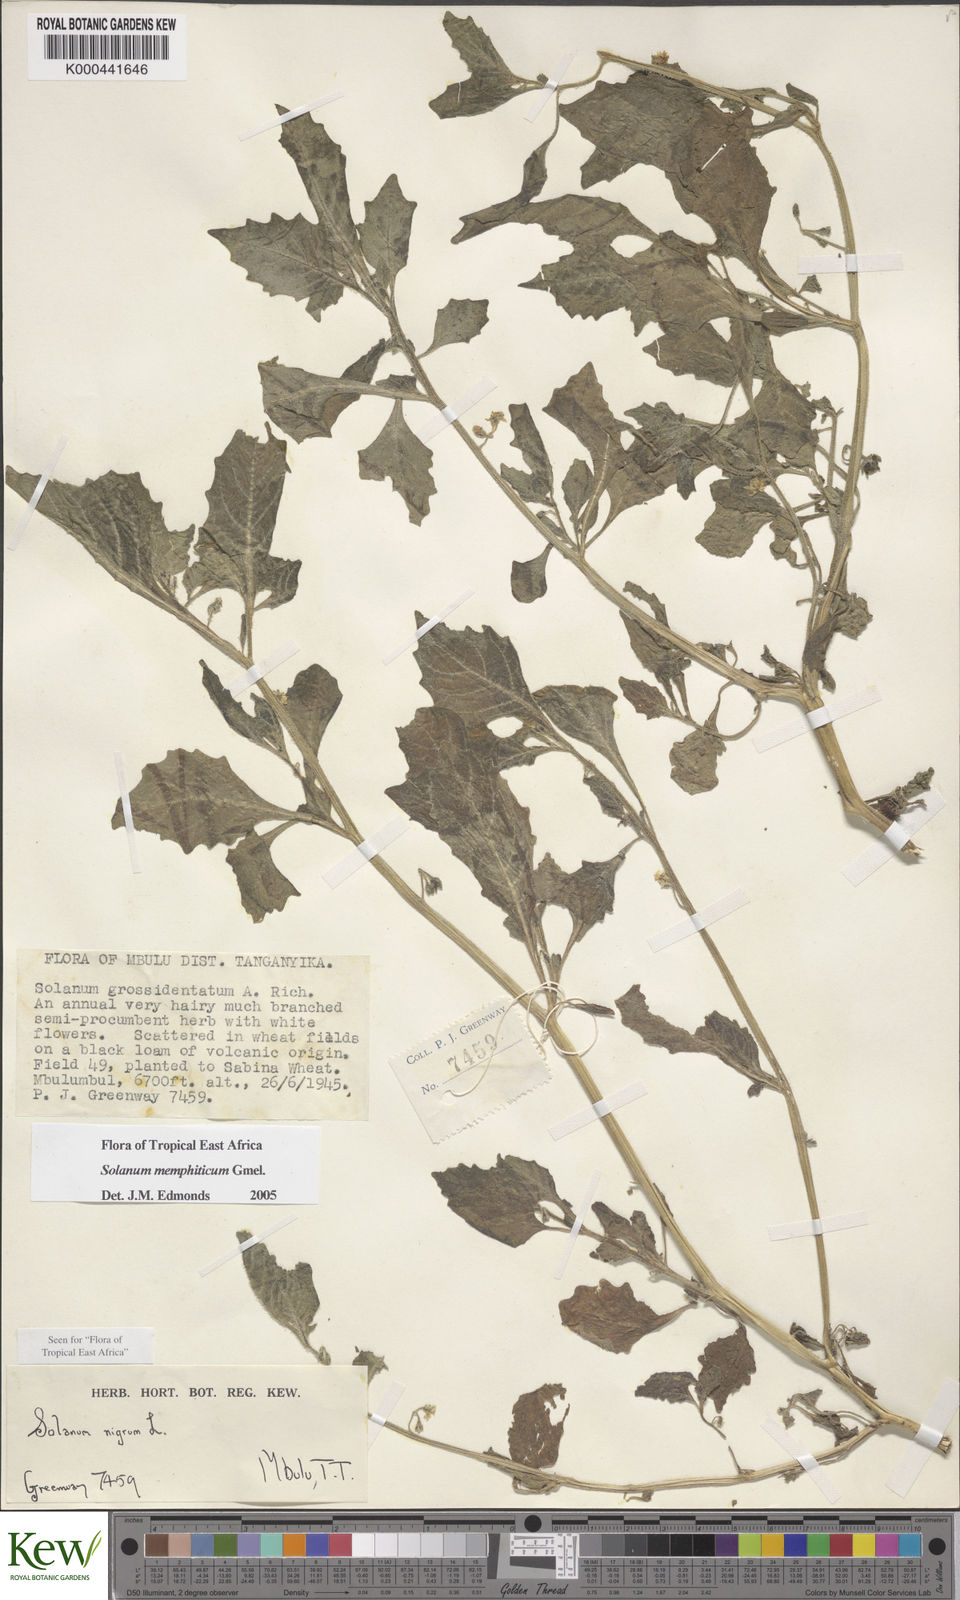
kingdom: Plantae
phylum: Tracheophyta
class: Magnoliopsida
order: Solanales
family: Solanaceae
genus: Solanum
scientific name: Solanum memphiticum
